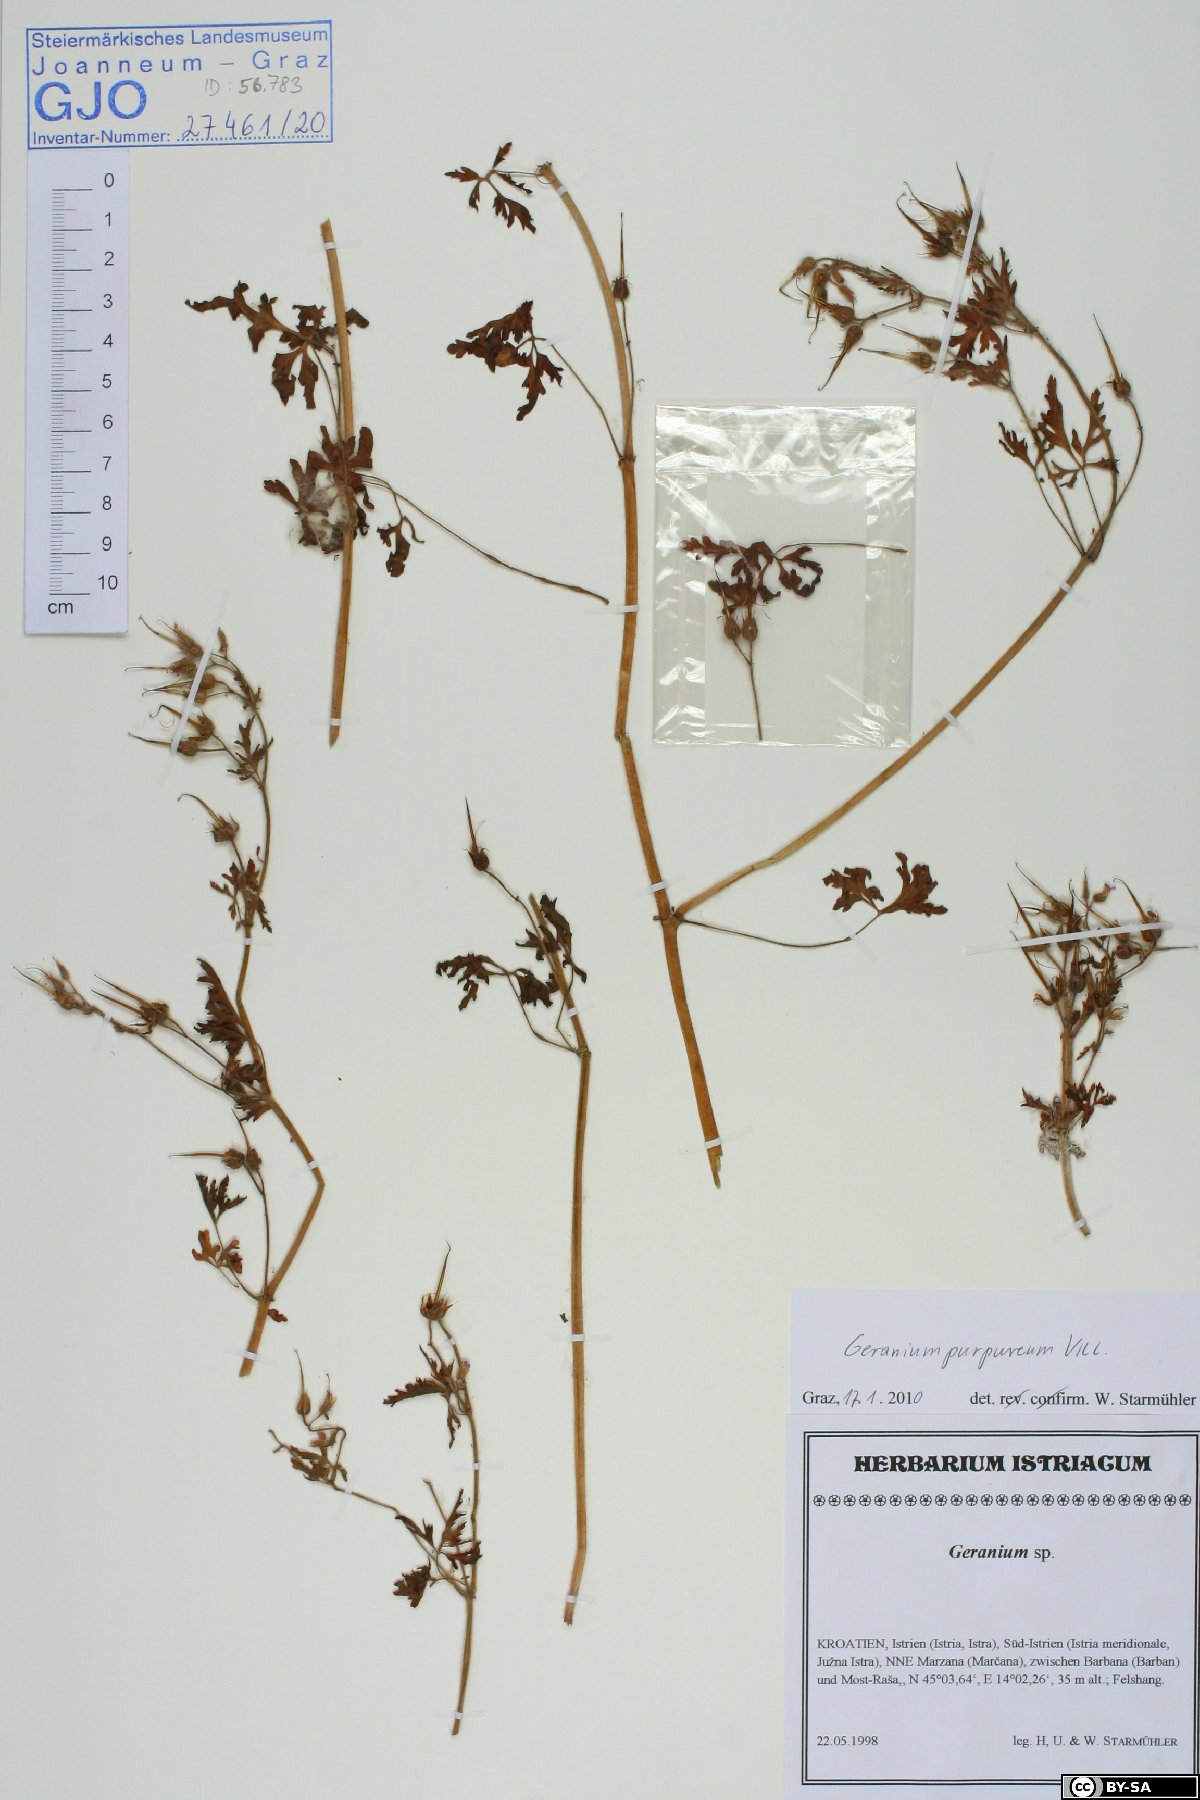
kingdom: Plantae
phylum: Tracheophyta
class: Magnoliopsida
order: Geraniales
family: Geraniaceae
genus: Geranium
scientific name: Geranium purpureum
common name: Little-robin
